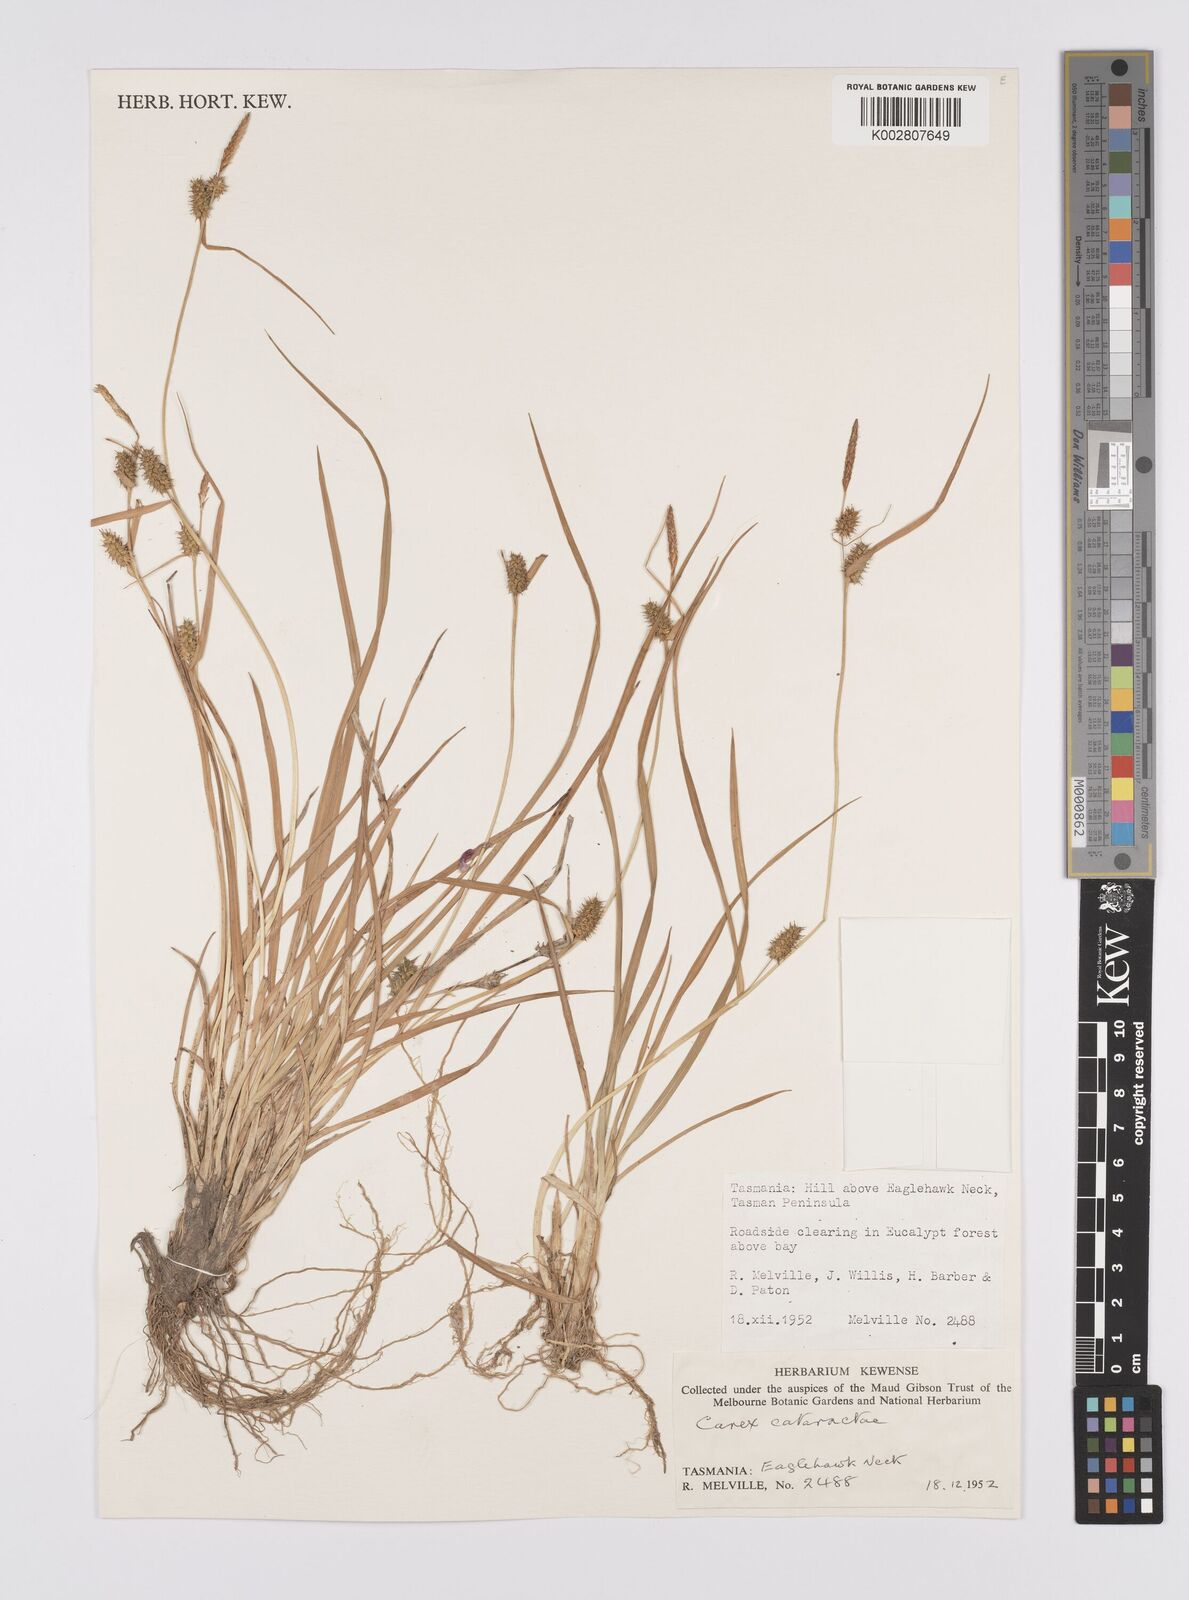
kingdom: Plantae
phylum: Tracheophyta
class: Liliopsida
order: Poales
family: Cyperaceae
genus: Carex
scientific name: Carex cataractae
